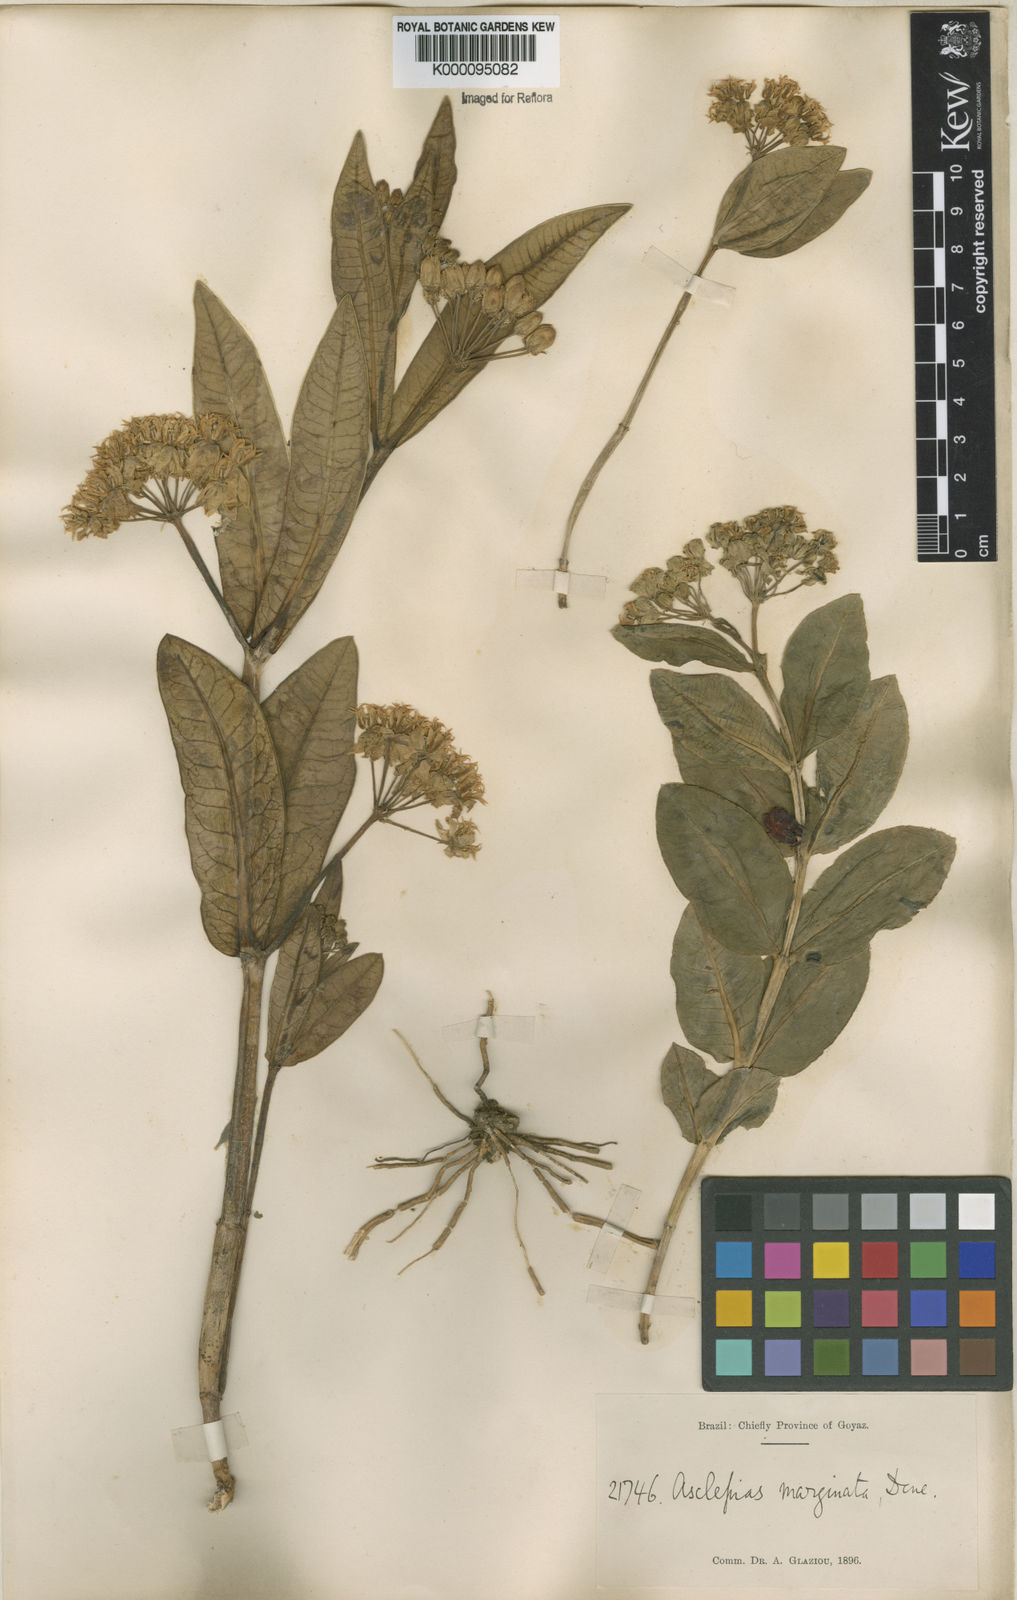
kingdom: Plantae
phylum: Tracheophyta
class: Magnoliopsida
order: Gentianales
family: Apocynaceae
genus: Asclepias
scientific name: Asclepias candida
